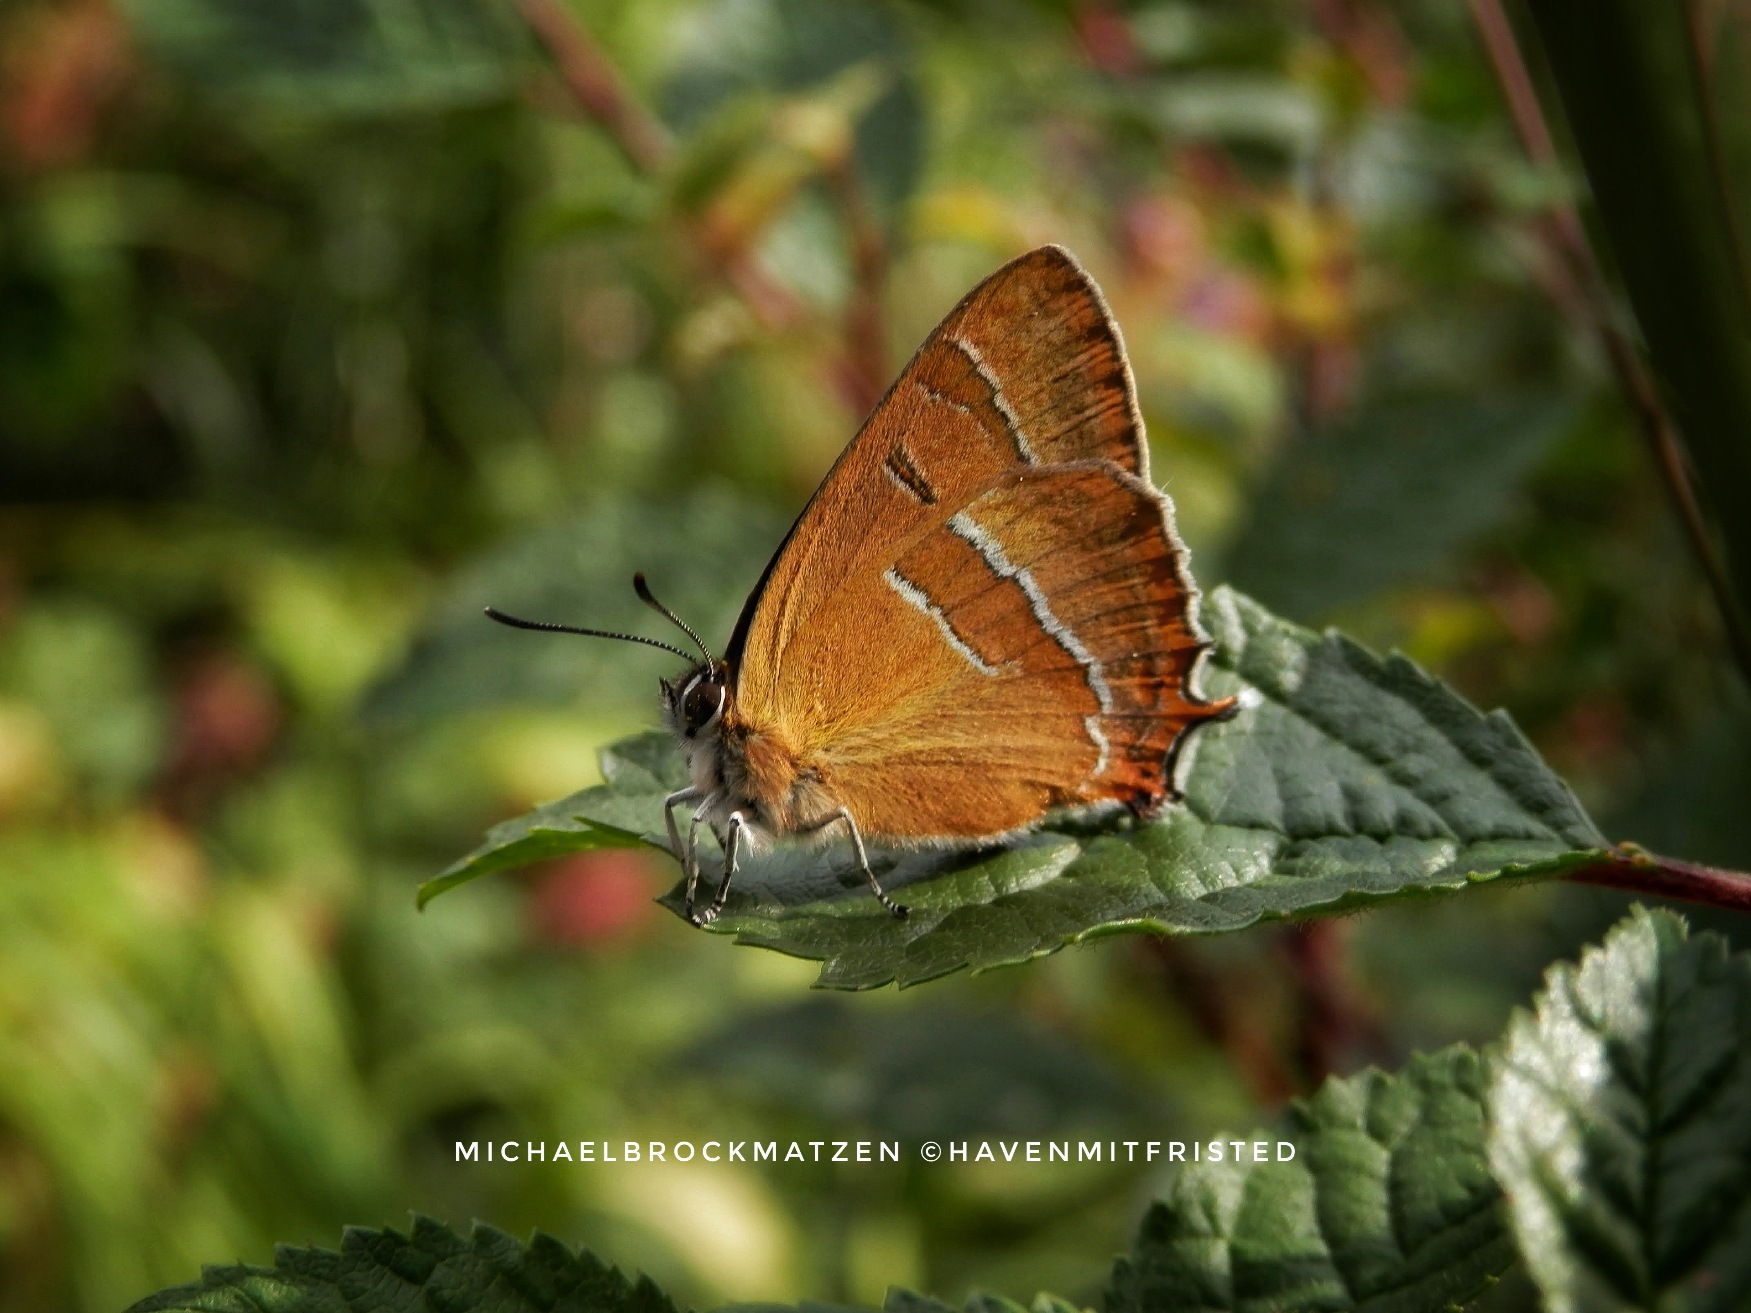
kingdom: Animalia
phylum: Arthropoda
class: Insecta
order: Lepidoptera
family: Lycaenidae
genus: Thecla
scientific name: Thecla betulae
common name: Guldhale
